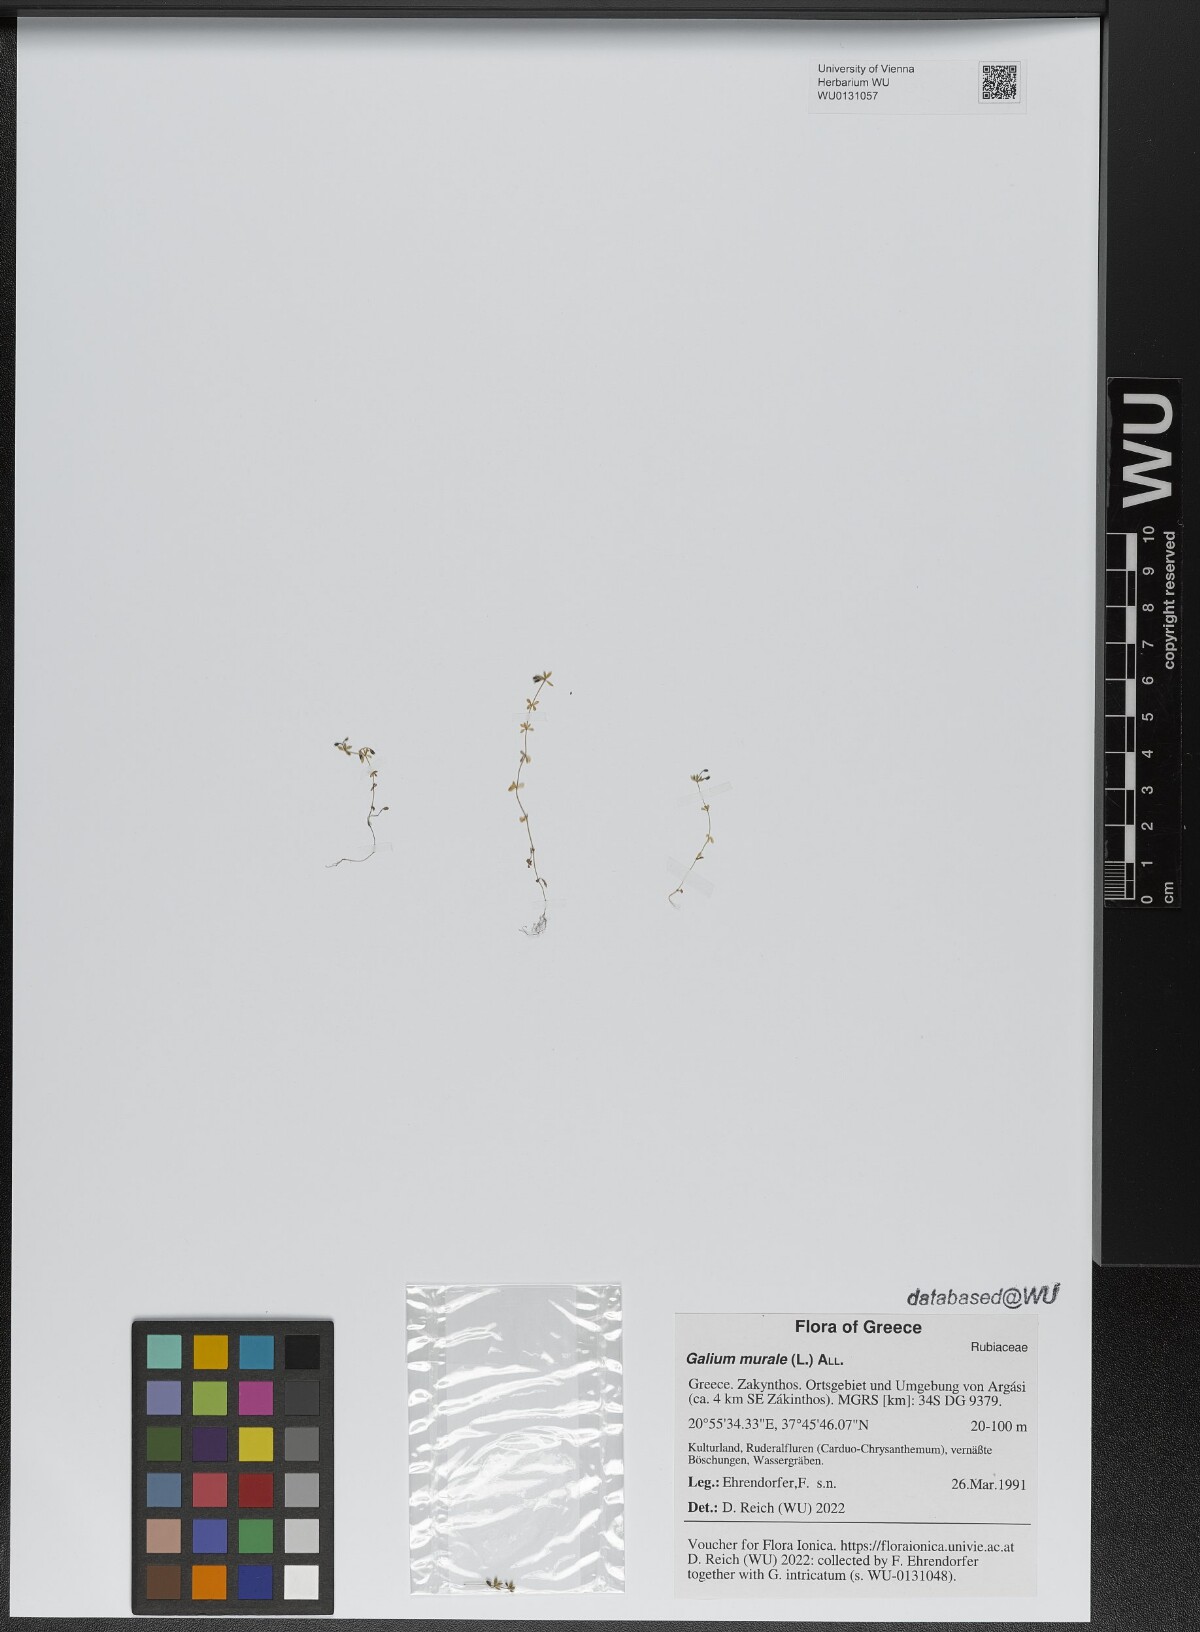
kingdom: Plantae
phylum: Tracheophyta
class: Magnoliopsida
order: Gentianales
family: Rubiaceae
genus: Galium
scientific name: Galium murale
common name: Yellow wall bedstraw
